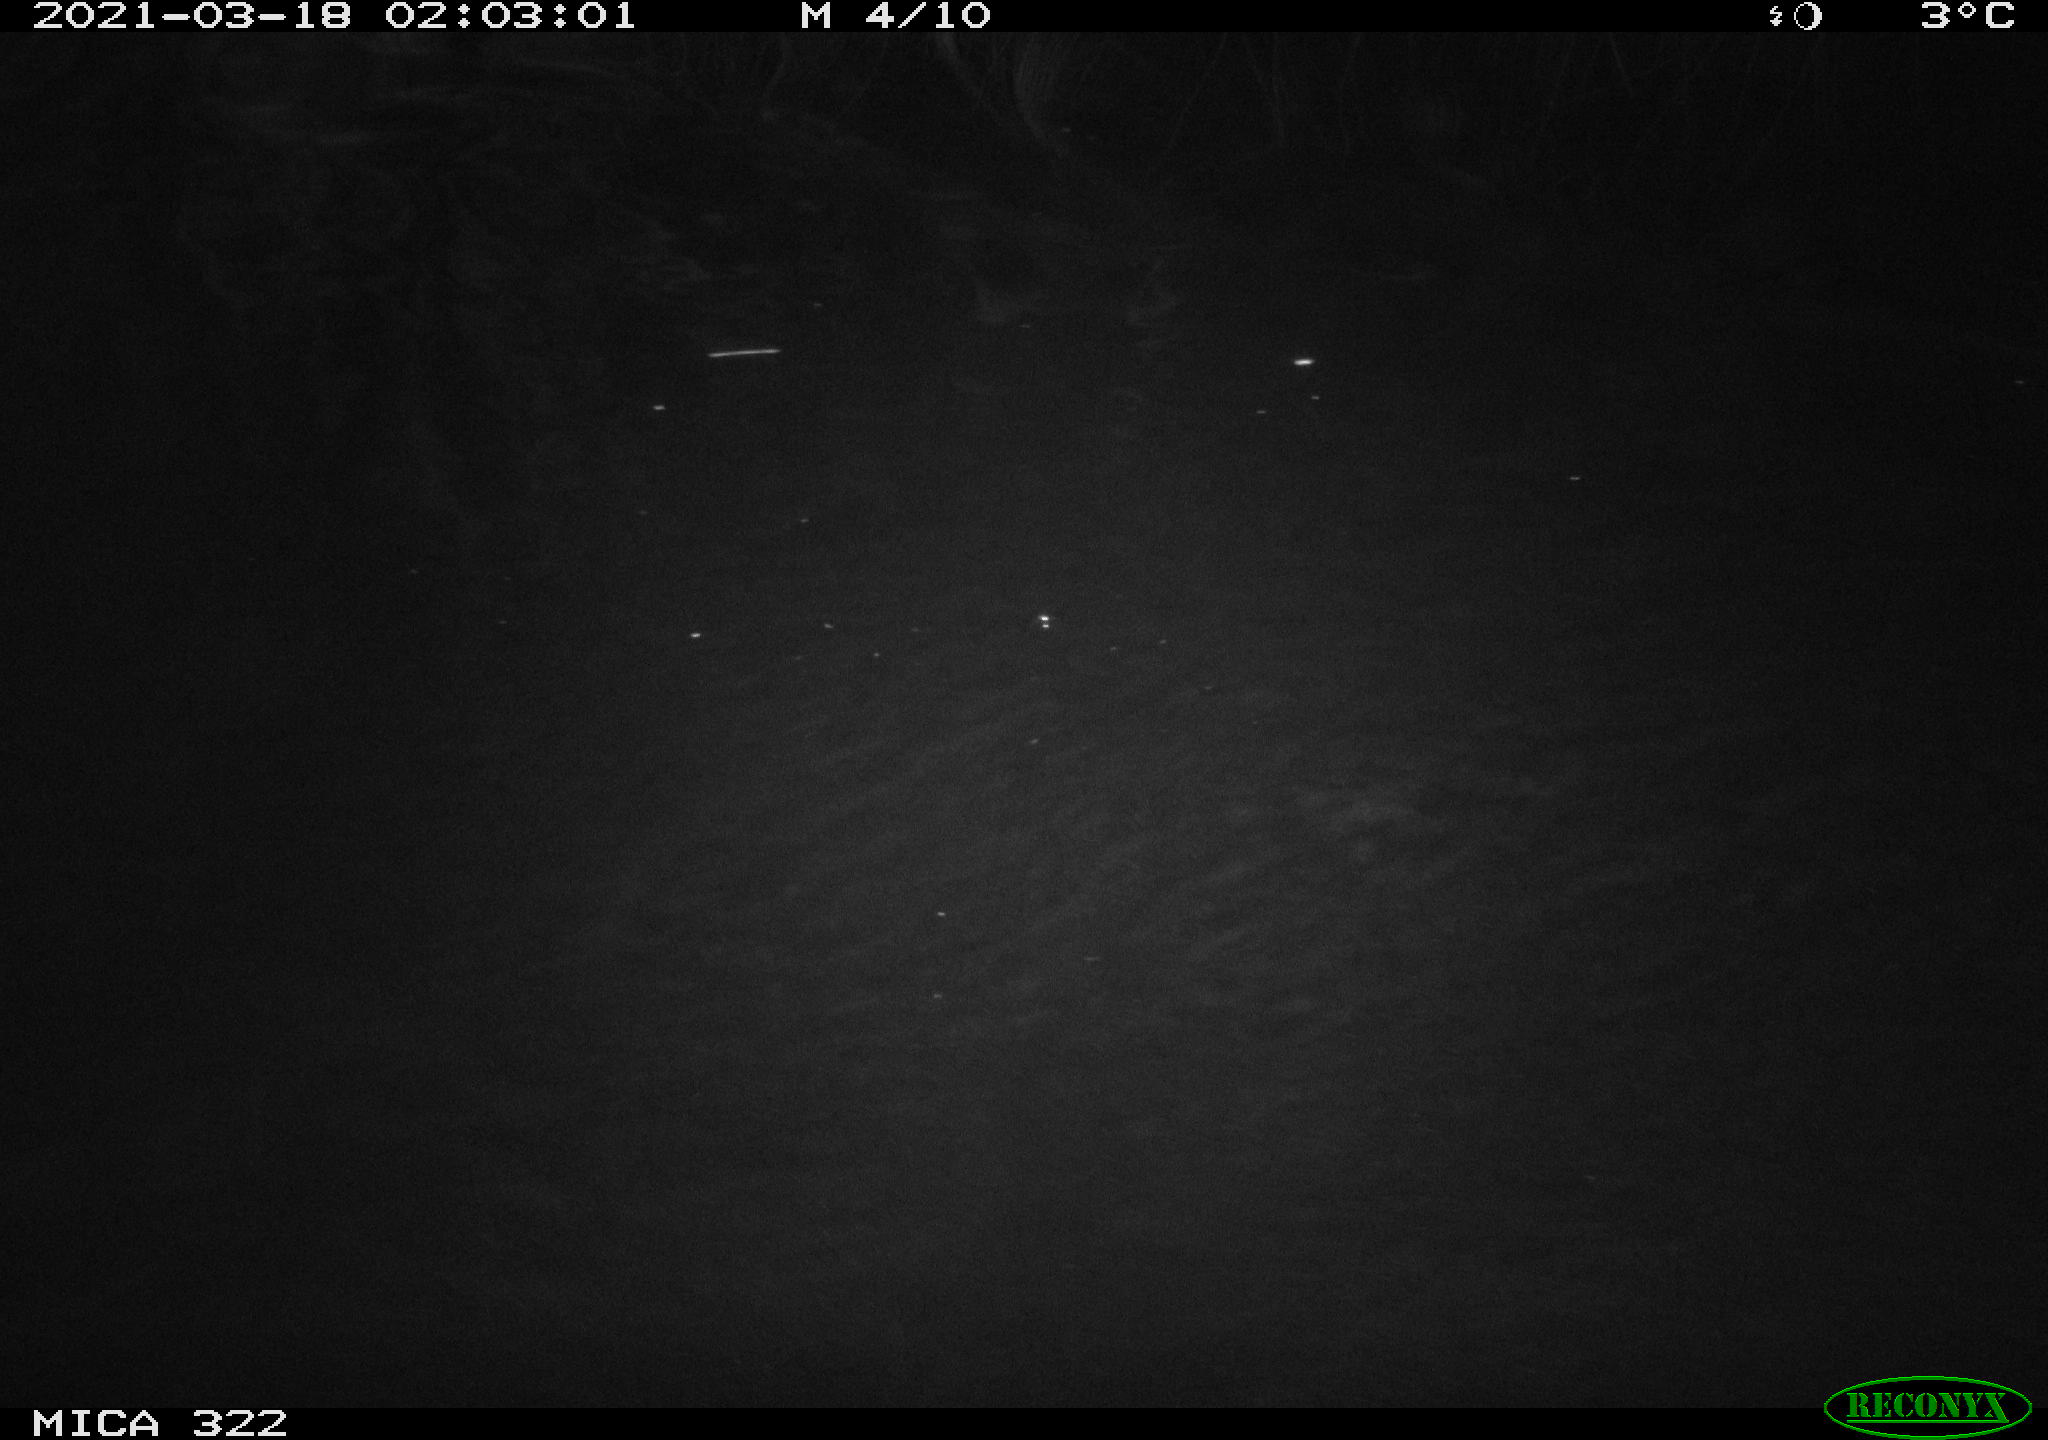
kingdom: Animalia
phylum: Chordata
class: Aves
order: Anseriformes
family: Anatidae
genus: Anas
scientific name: Anas platyrhynchos
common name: Mallard
